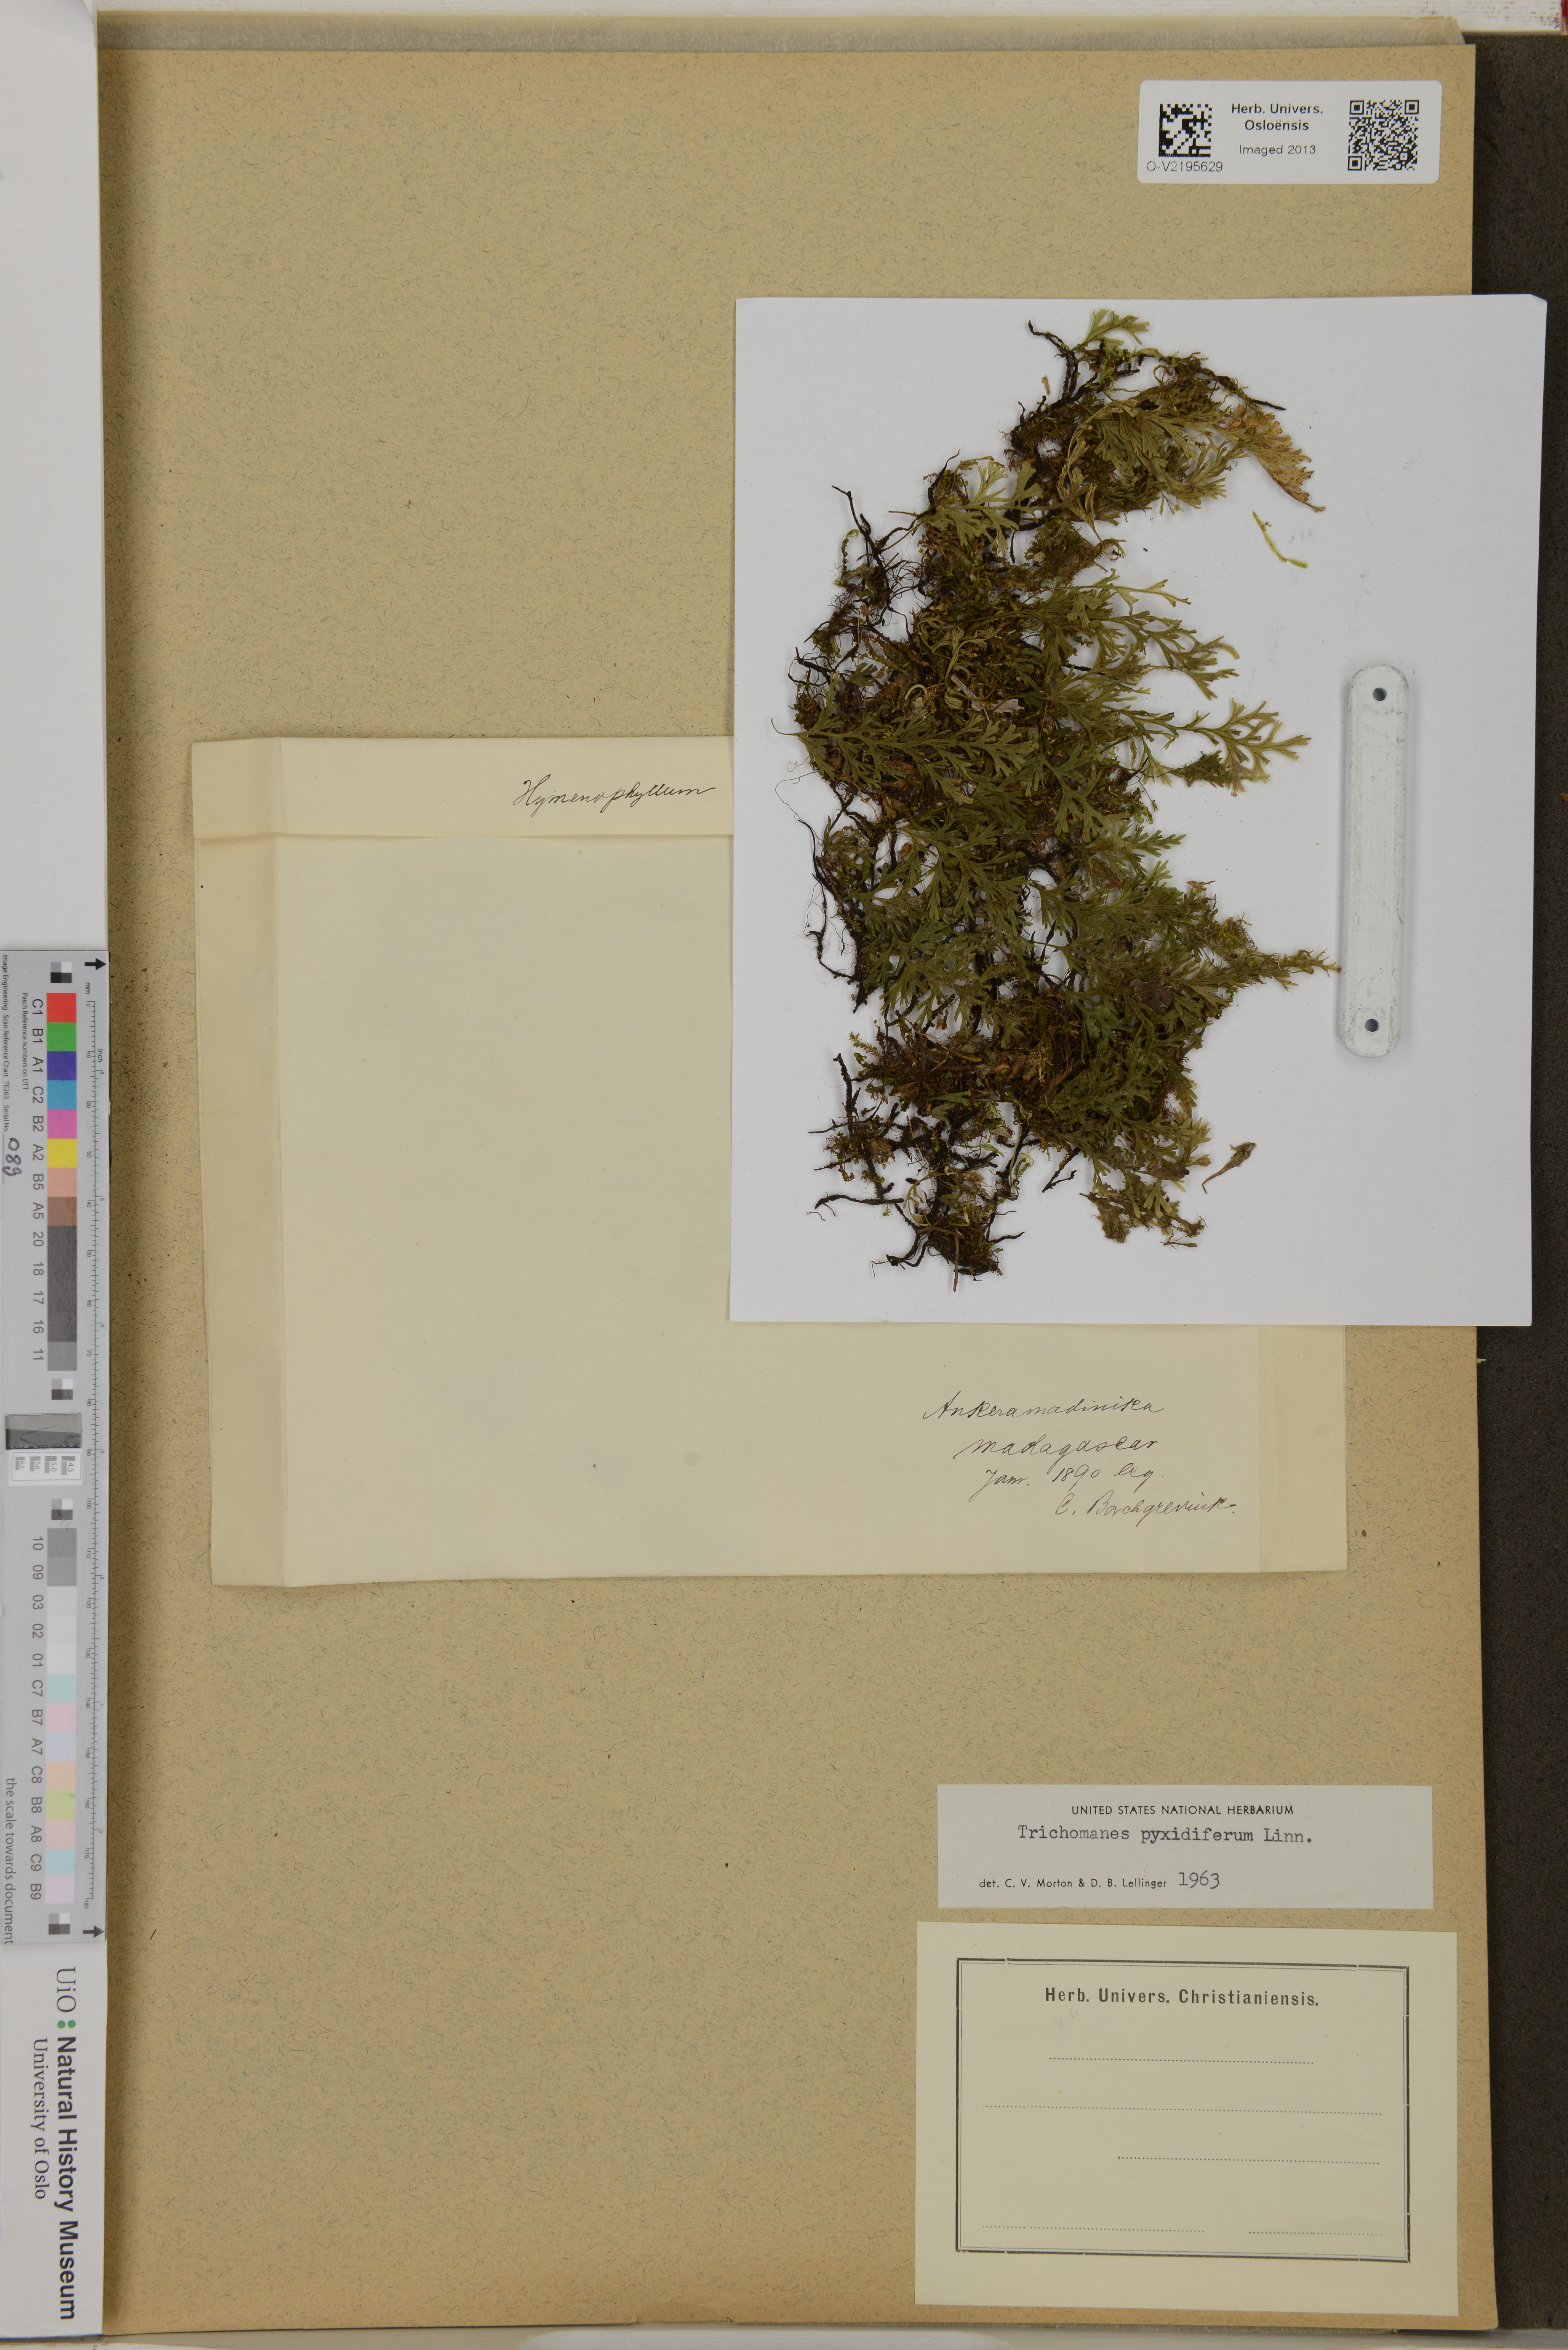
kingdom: Plantae
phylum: Tracheophyta
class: Polypodiopsida
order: Hymenophyllales
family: Hymenophyllaceae
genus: Trichomanes
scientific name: Trichomanes pyxidiferum
